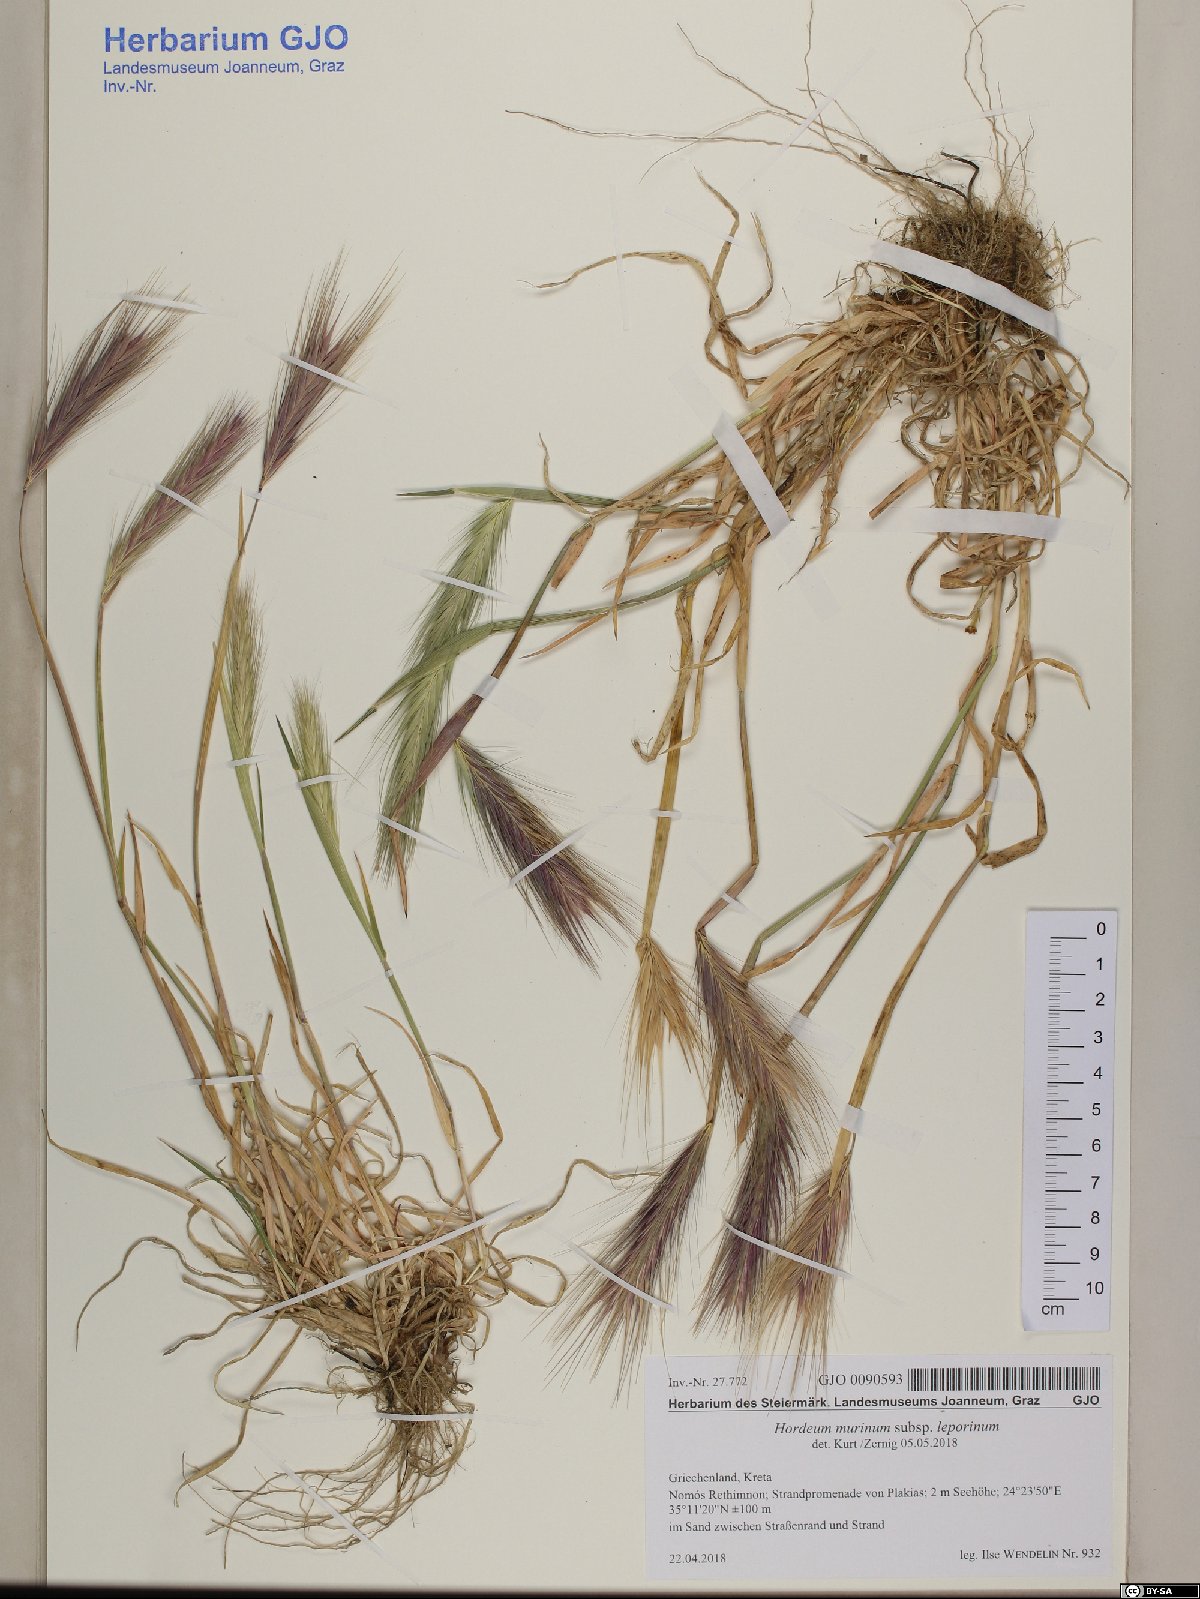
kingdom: Plantae
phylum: Tracheophyta
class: Liliopsida
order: Poales
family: Poaceae
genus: Hordeum
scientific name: Hordeum murinum
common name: Wall barley
